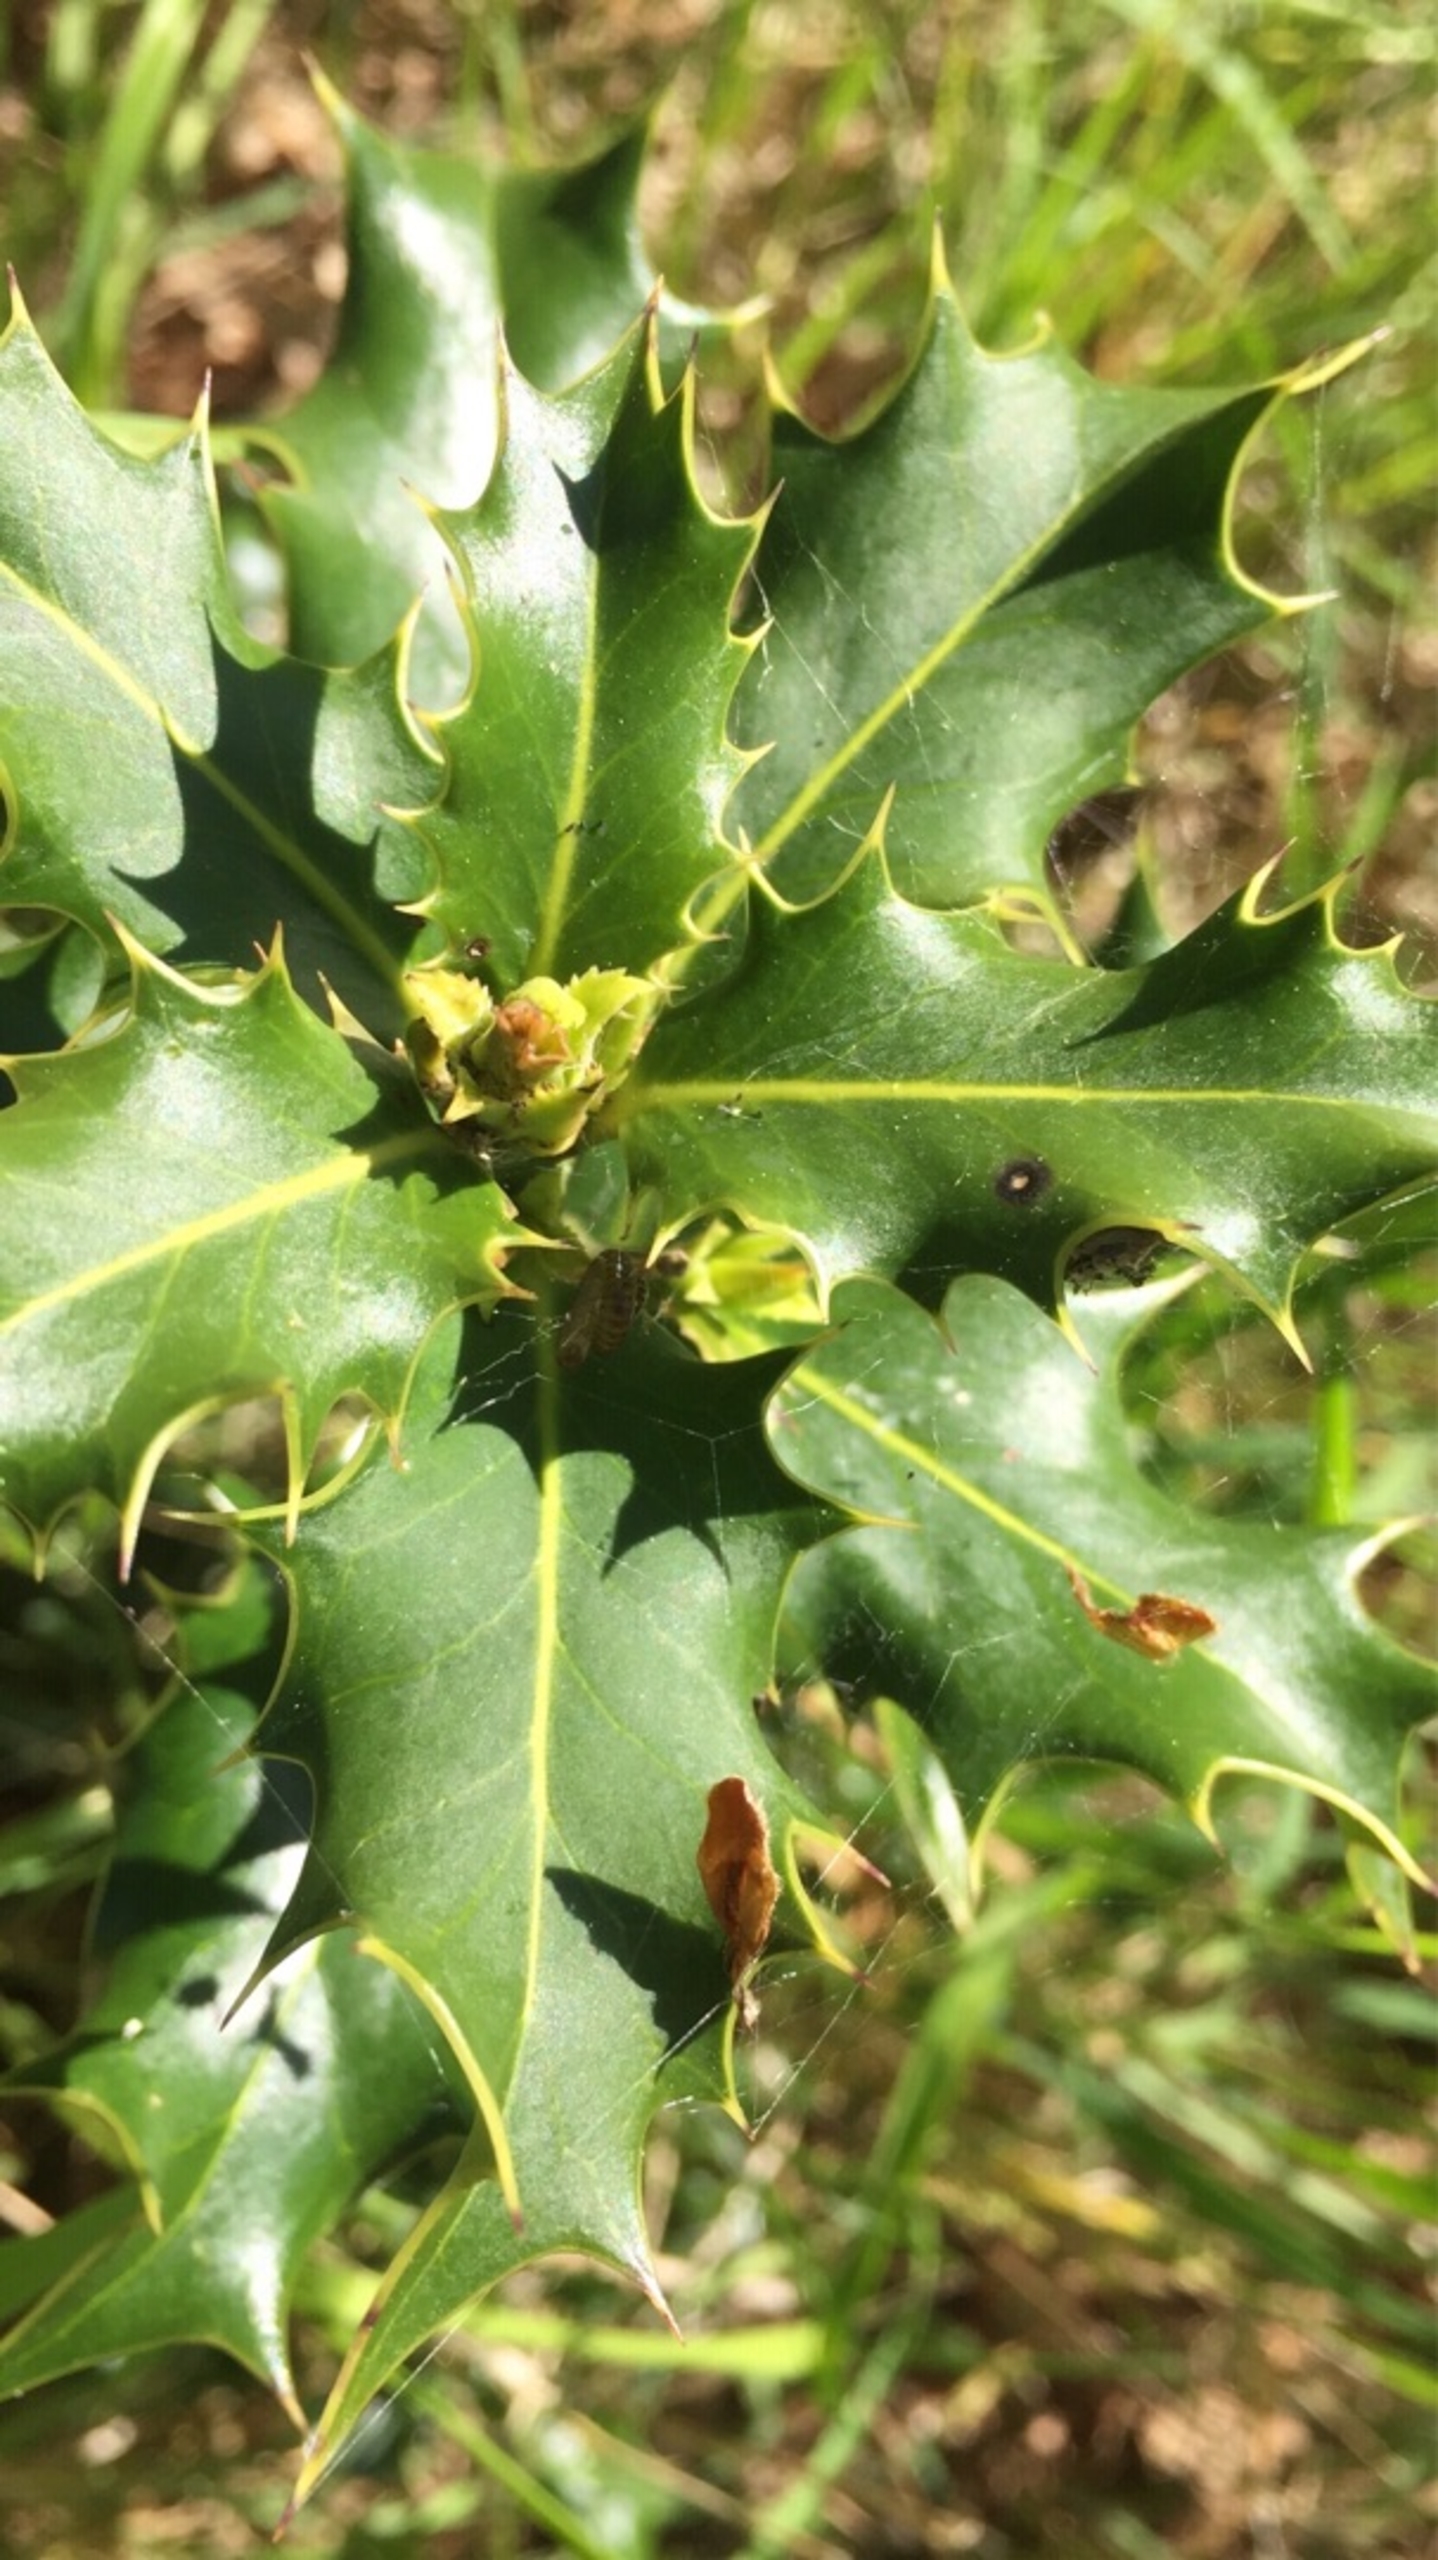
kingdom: Plantae
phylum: Tracheophyta
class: Magnoliopsida
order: Aquifoliales
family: Aquifoliaceae
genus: Ilex
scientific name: Ilex aquifolium
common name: Kristtorn
